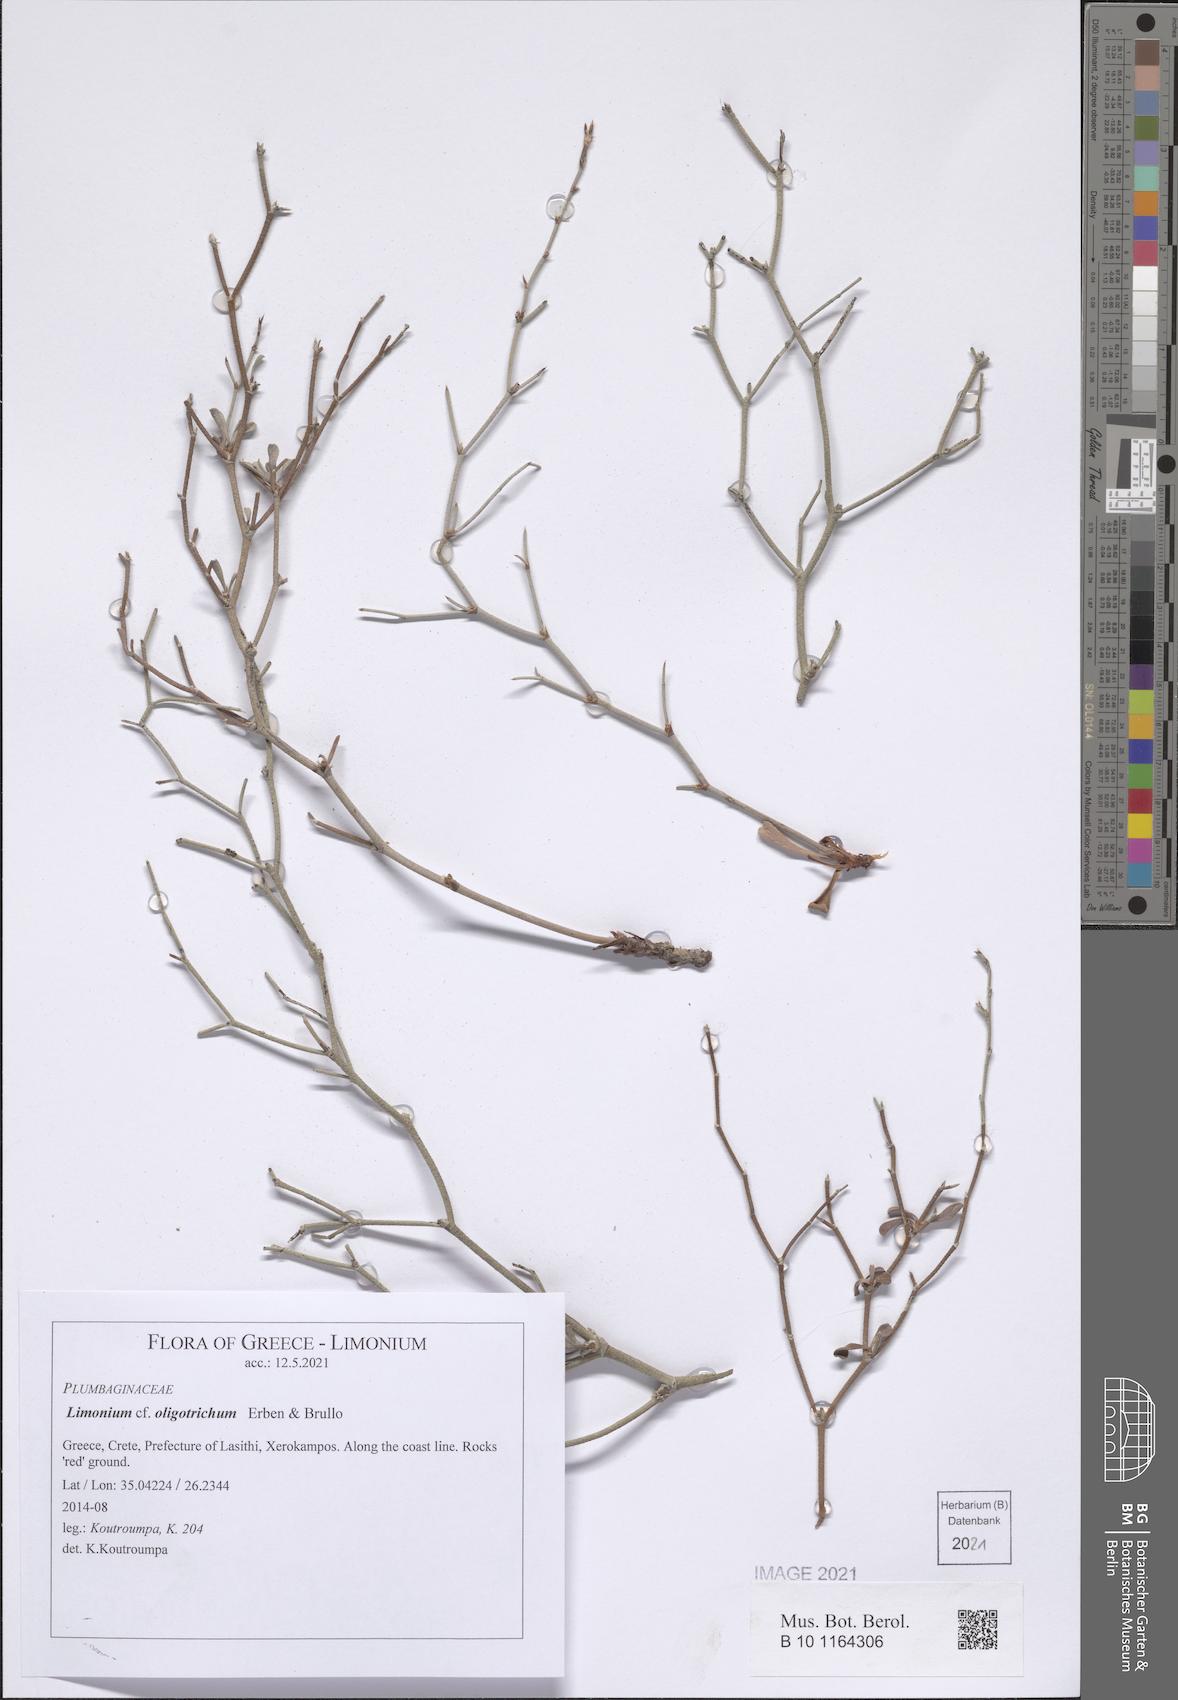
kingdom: Plantae
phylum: Tracheophyta
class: Magnoliopsida
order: Caryophyllales
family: Plumbaginaceae
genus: Limonium
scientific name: Limonium oligotrichum
